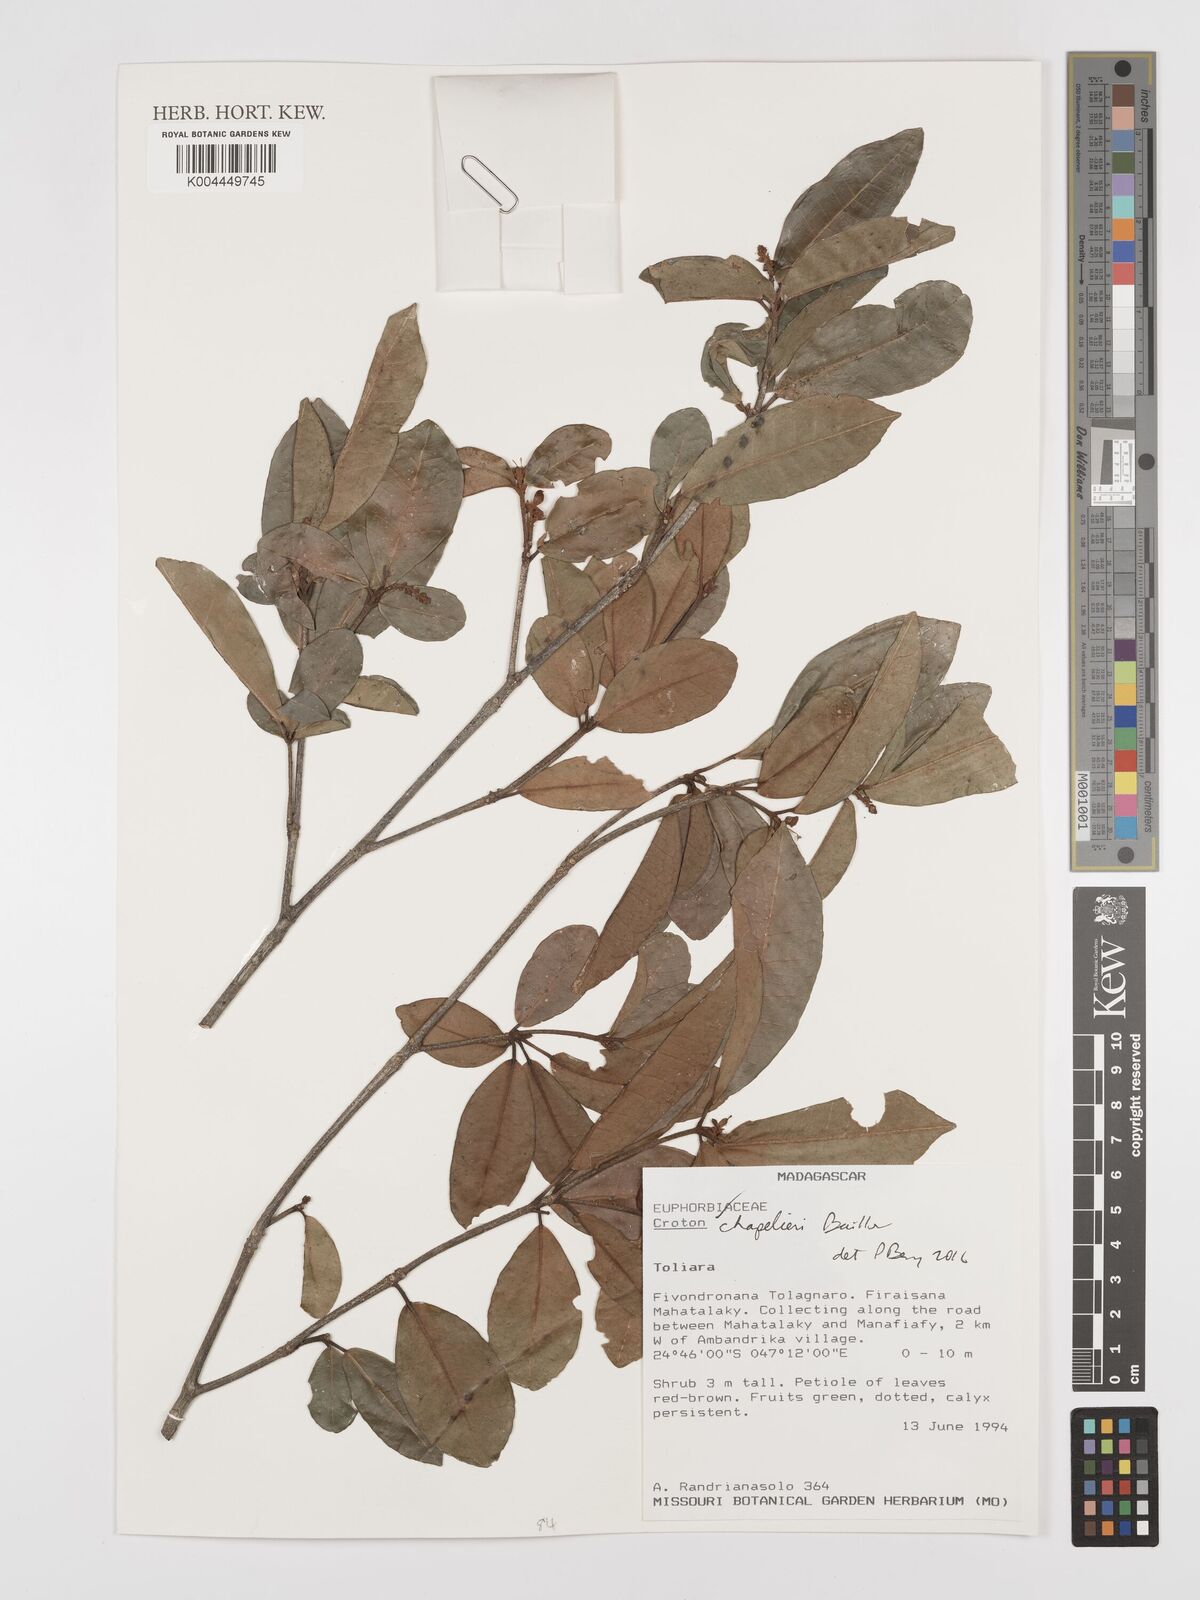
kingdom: Plantae
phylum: Tracheophyta
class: Magnoliopsida
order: Malpighiales
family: Euphorbiaceae
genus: Croton
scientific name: Croton chapelieri
